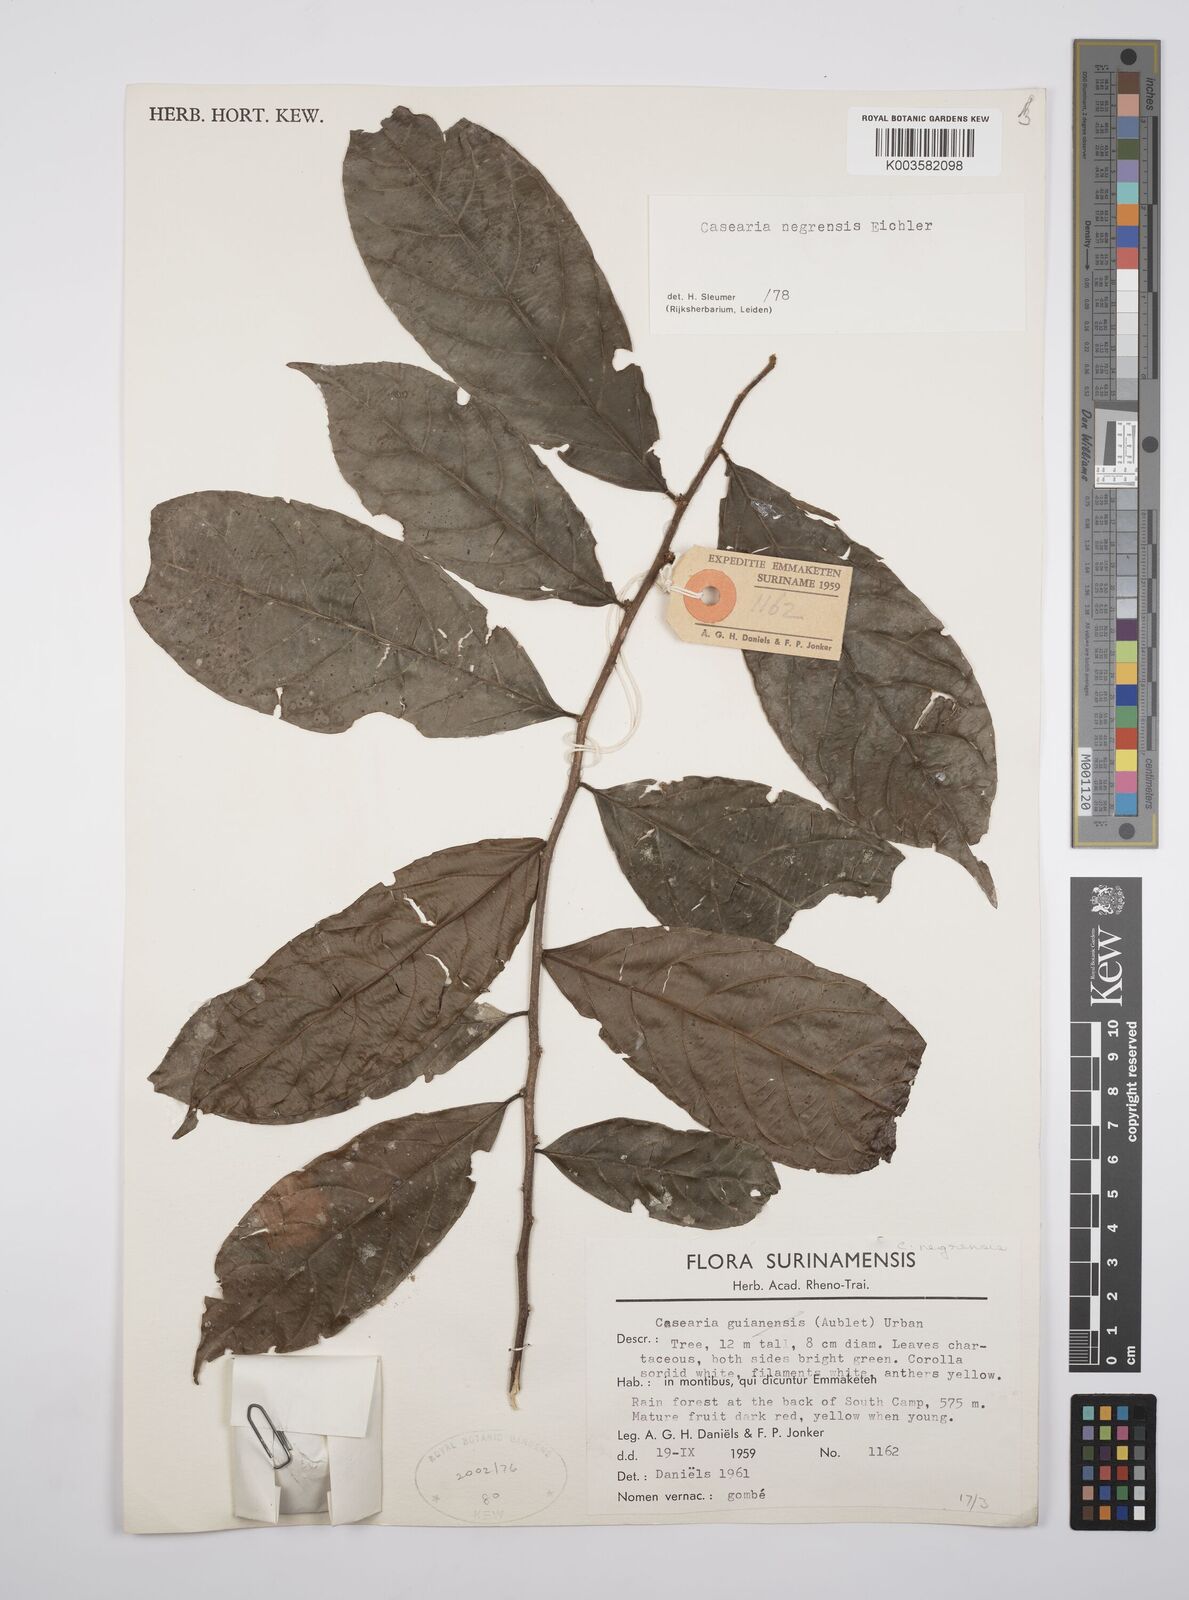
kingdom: Plantae
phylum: Tracheophyta
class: Magnoliopsida
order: Malpighiales
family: Salicaceae
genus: Casearia
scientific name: Casearia negrensis
